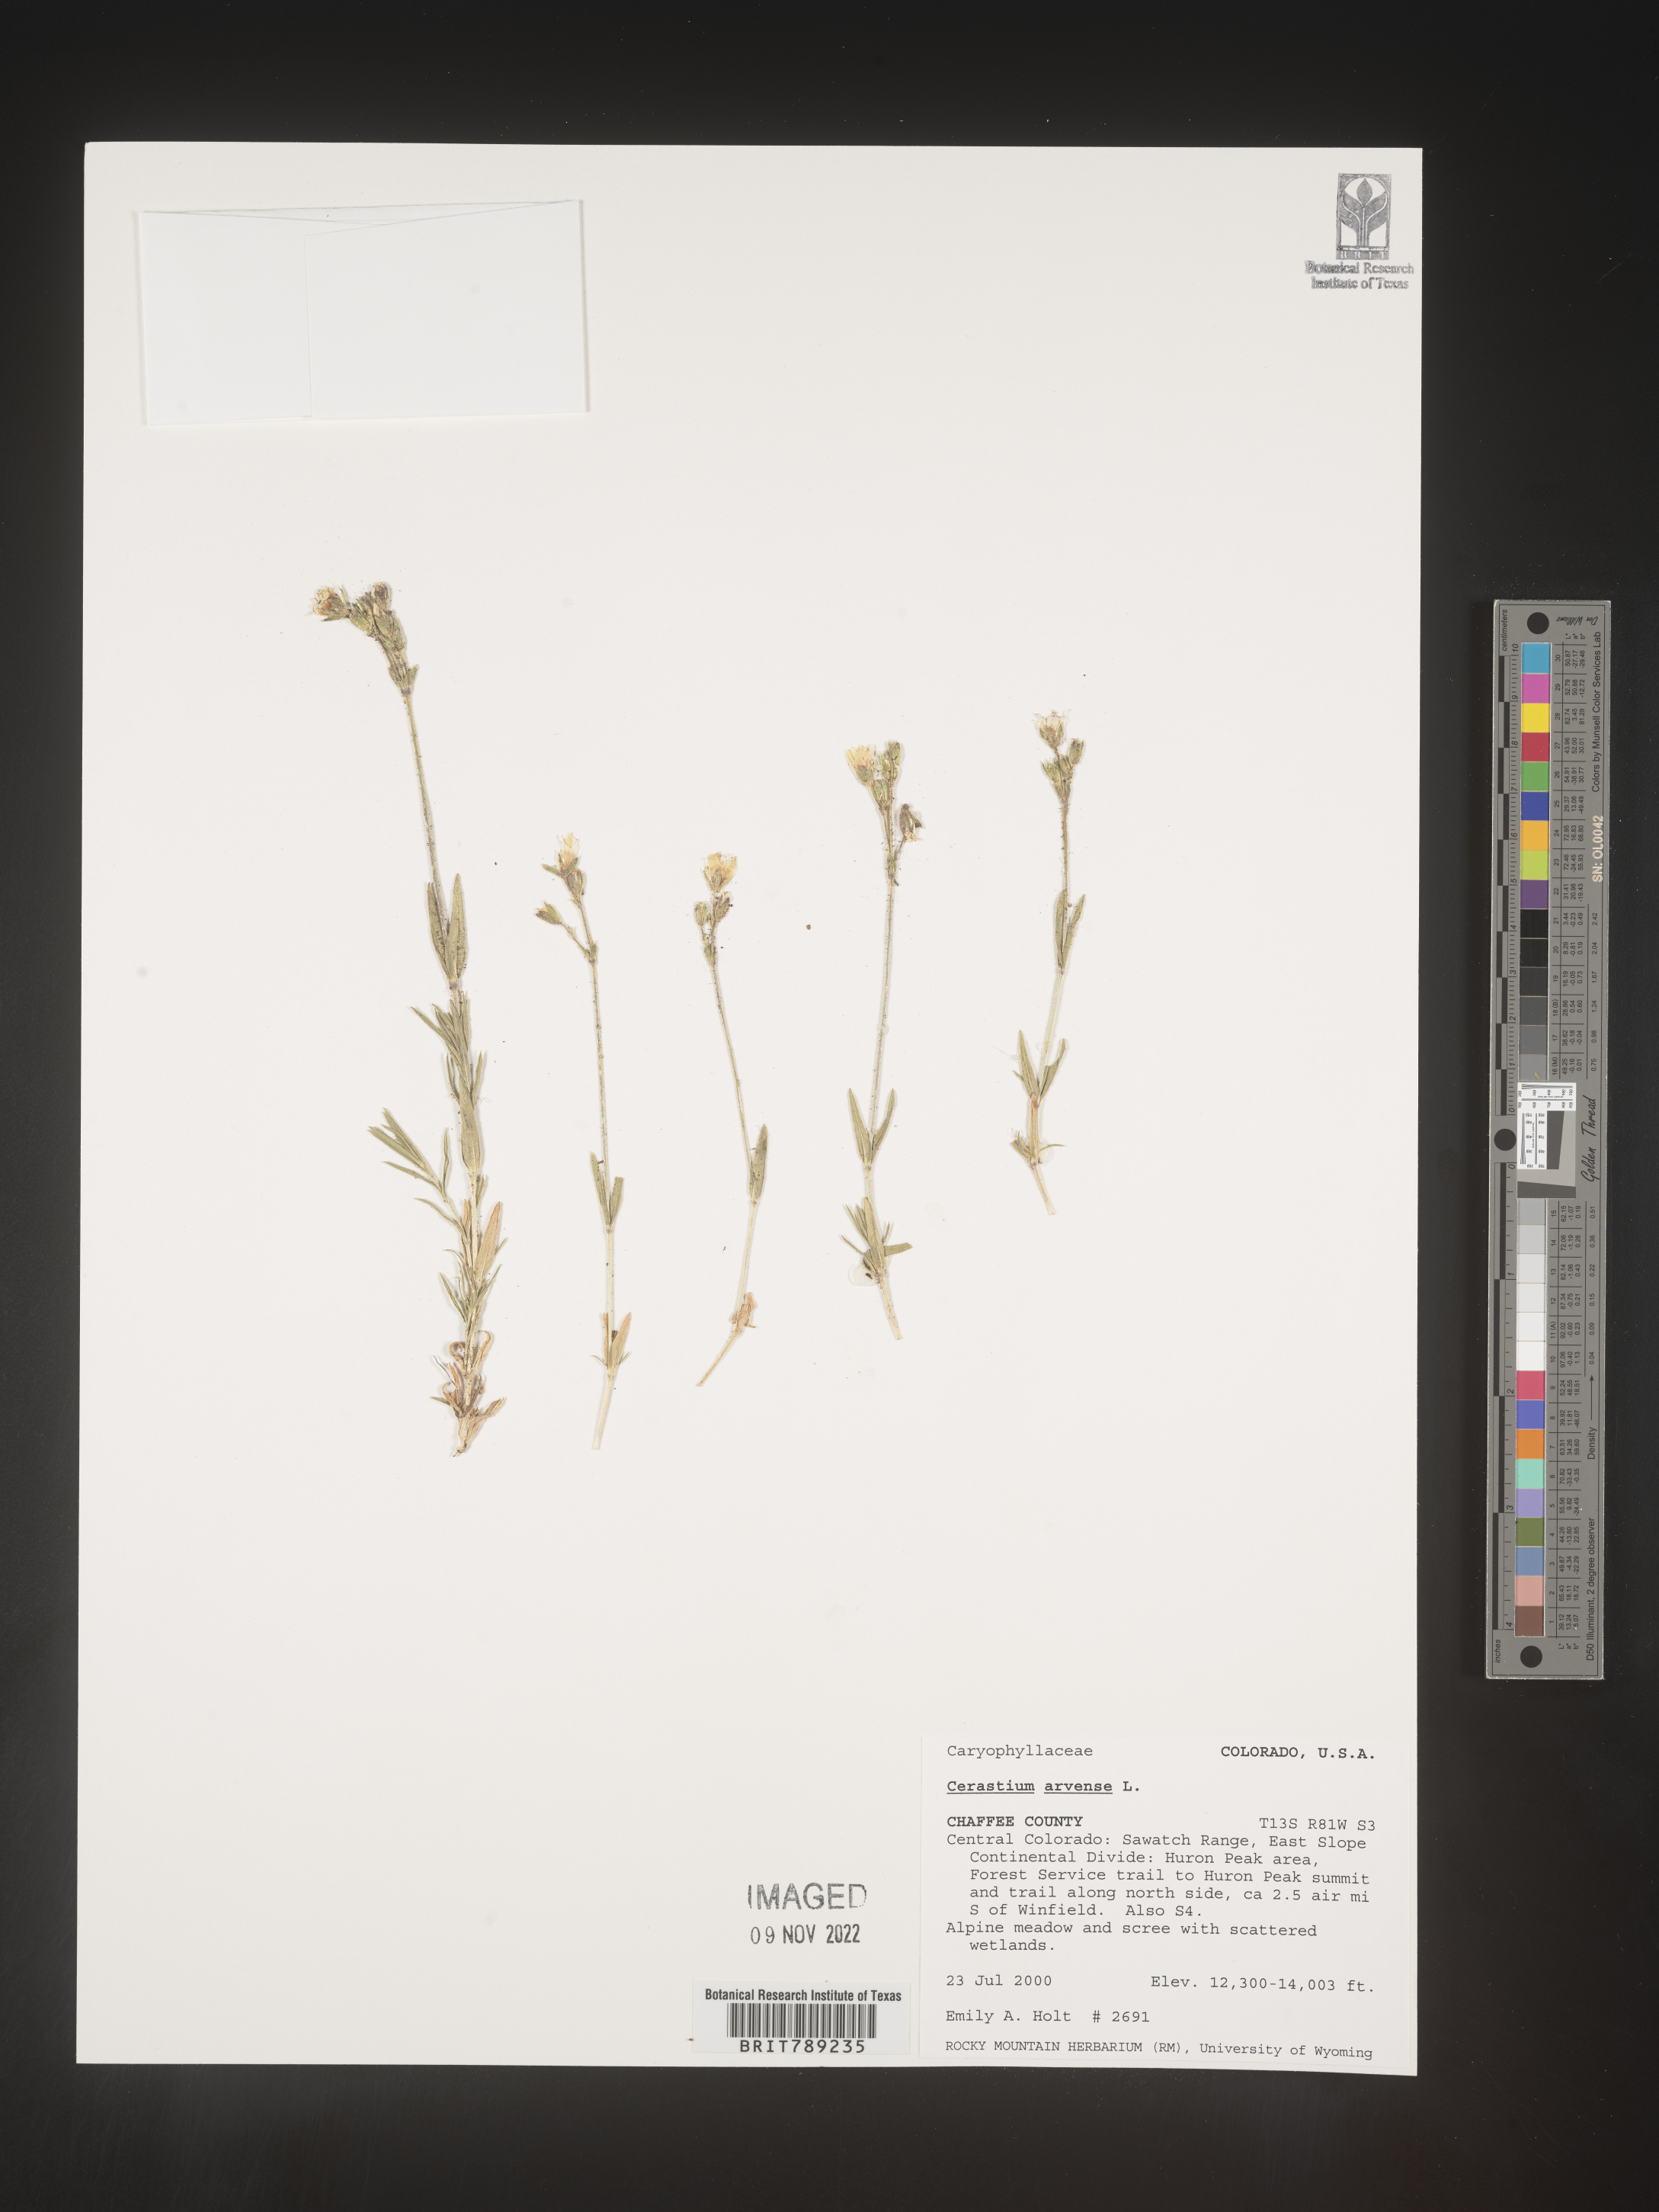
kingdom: Plantae
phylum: Tracheophyta
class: Magnoliopsida
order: Caryophyllales
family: Caryophyllaceae
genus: Cerastium
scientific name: Cerastium arvense
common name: Field mouse-ear
